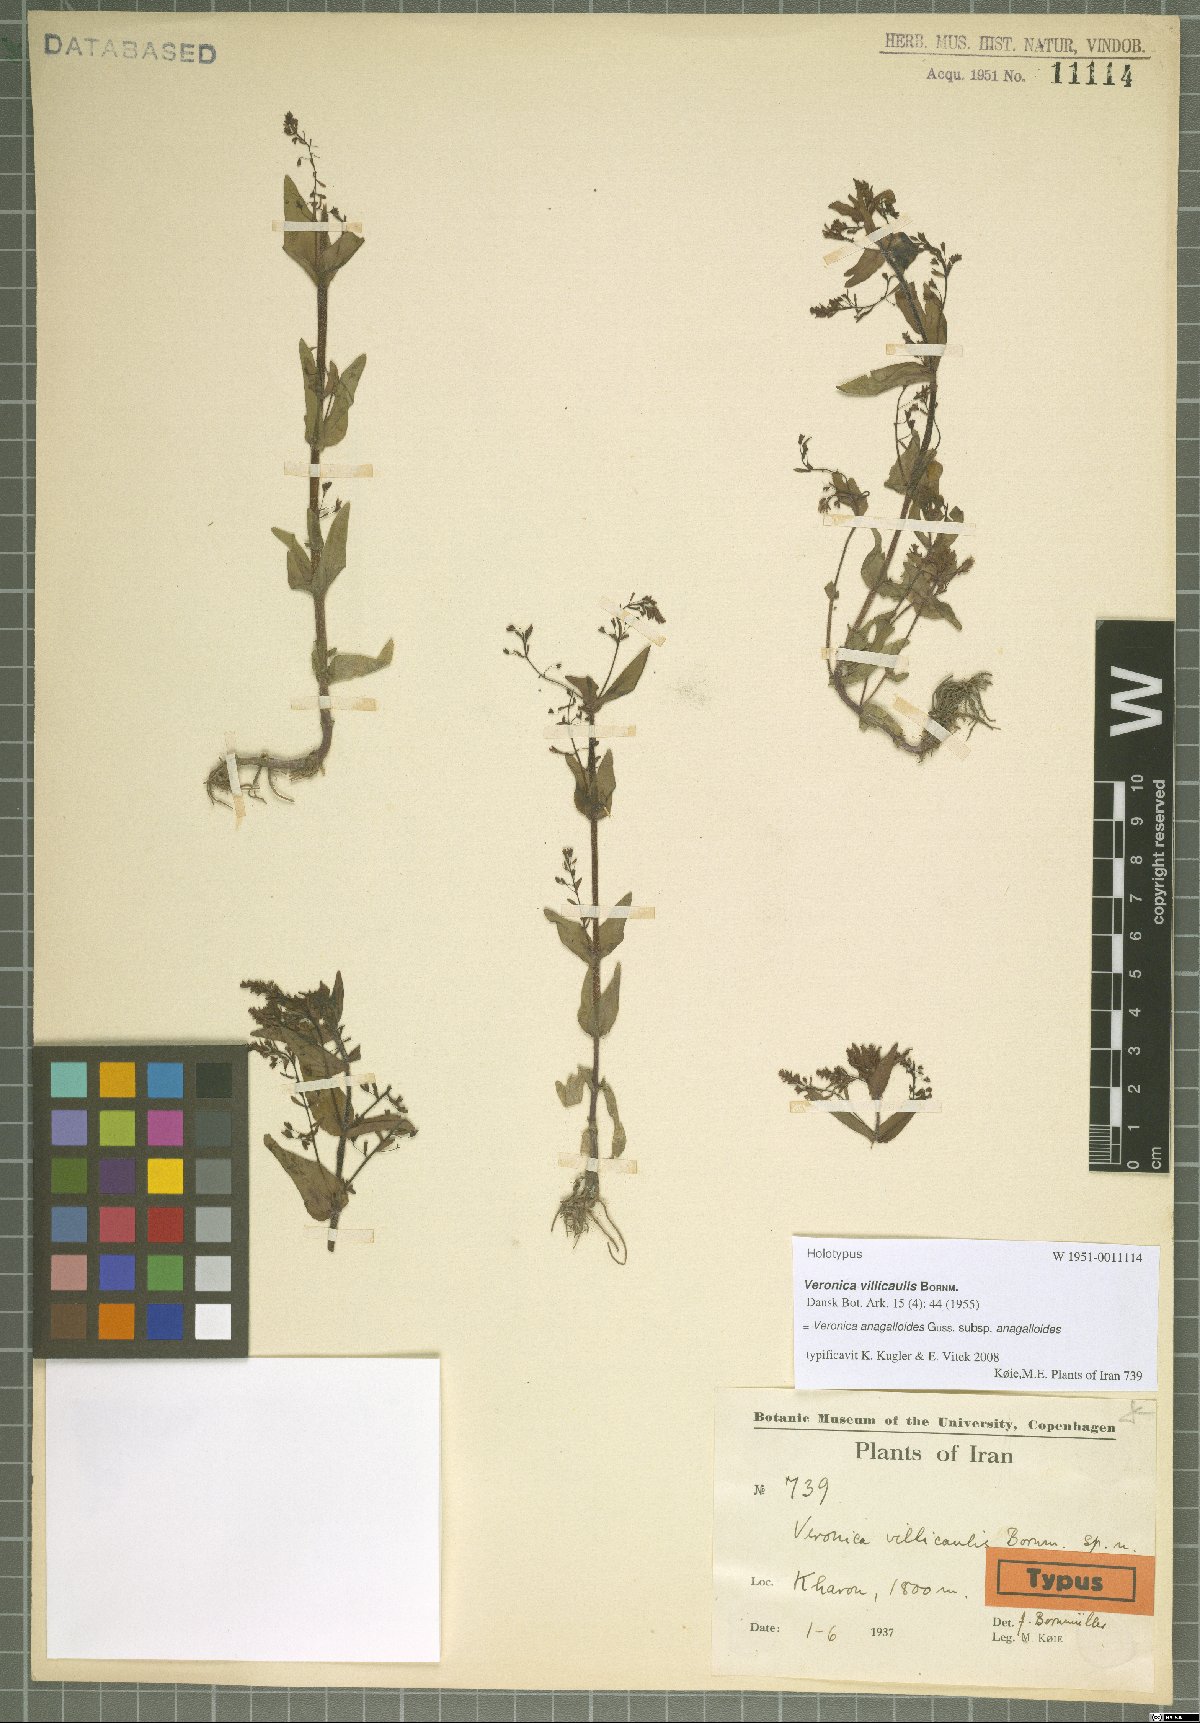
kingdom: Plantae
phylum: Tracheophyta
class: Magnoliopsida
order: Lamiales
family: Plantaginaceae
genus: Veronica
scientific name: Veronica anagalloides
